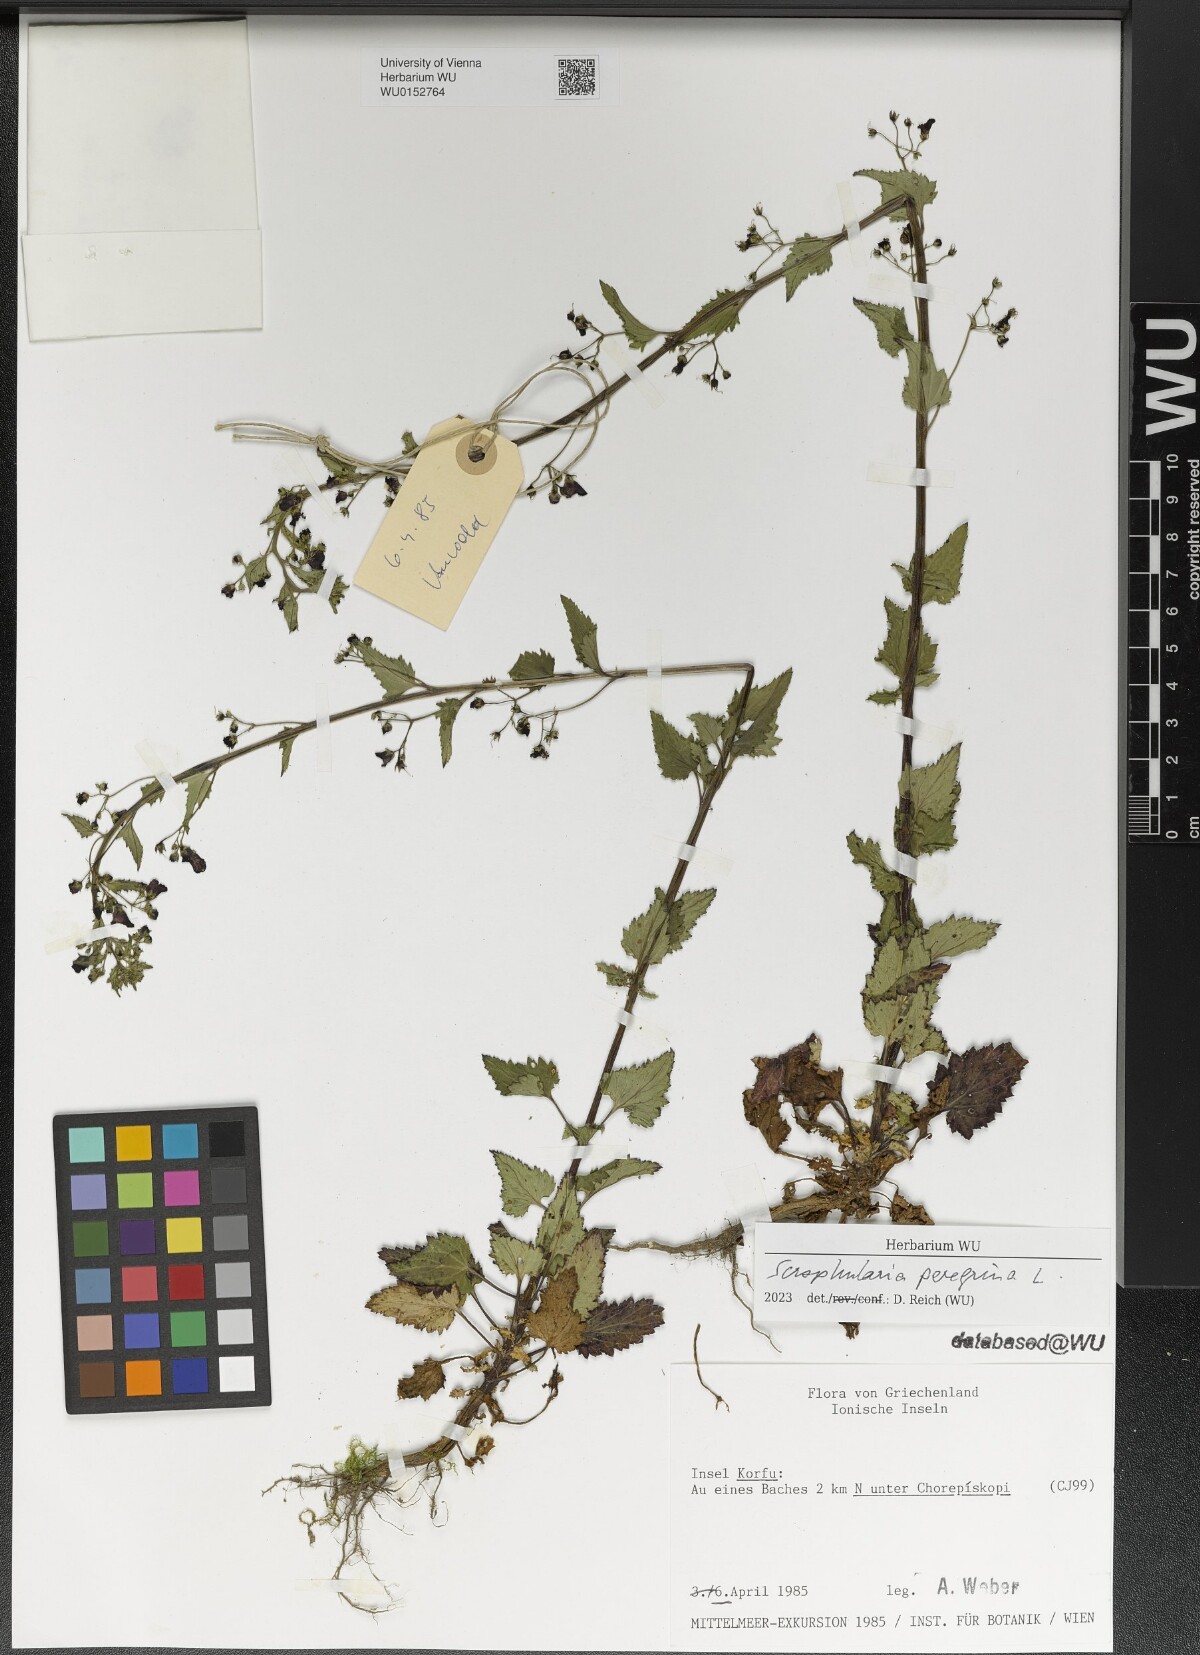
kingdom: Plantae
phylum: Tracheophyta
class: Magnoliopsida
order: Lamiales
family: Scrophulariaceae
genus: Scrophularia
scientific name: Scrophularia peregrina
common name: Mediterranean figwort
